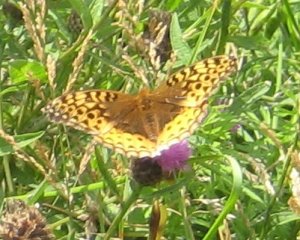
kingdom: Animalia
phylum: Arthropoda
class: Insecta
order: Lepidoptera
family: Nymphalidae
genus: Speyeria
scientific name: Speyeria cybele
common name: Great Spangled Fritillary
